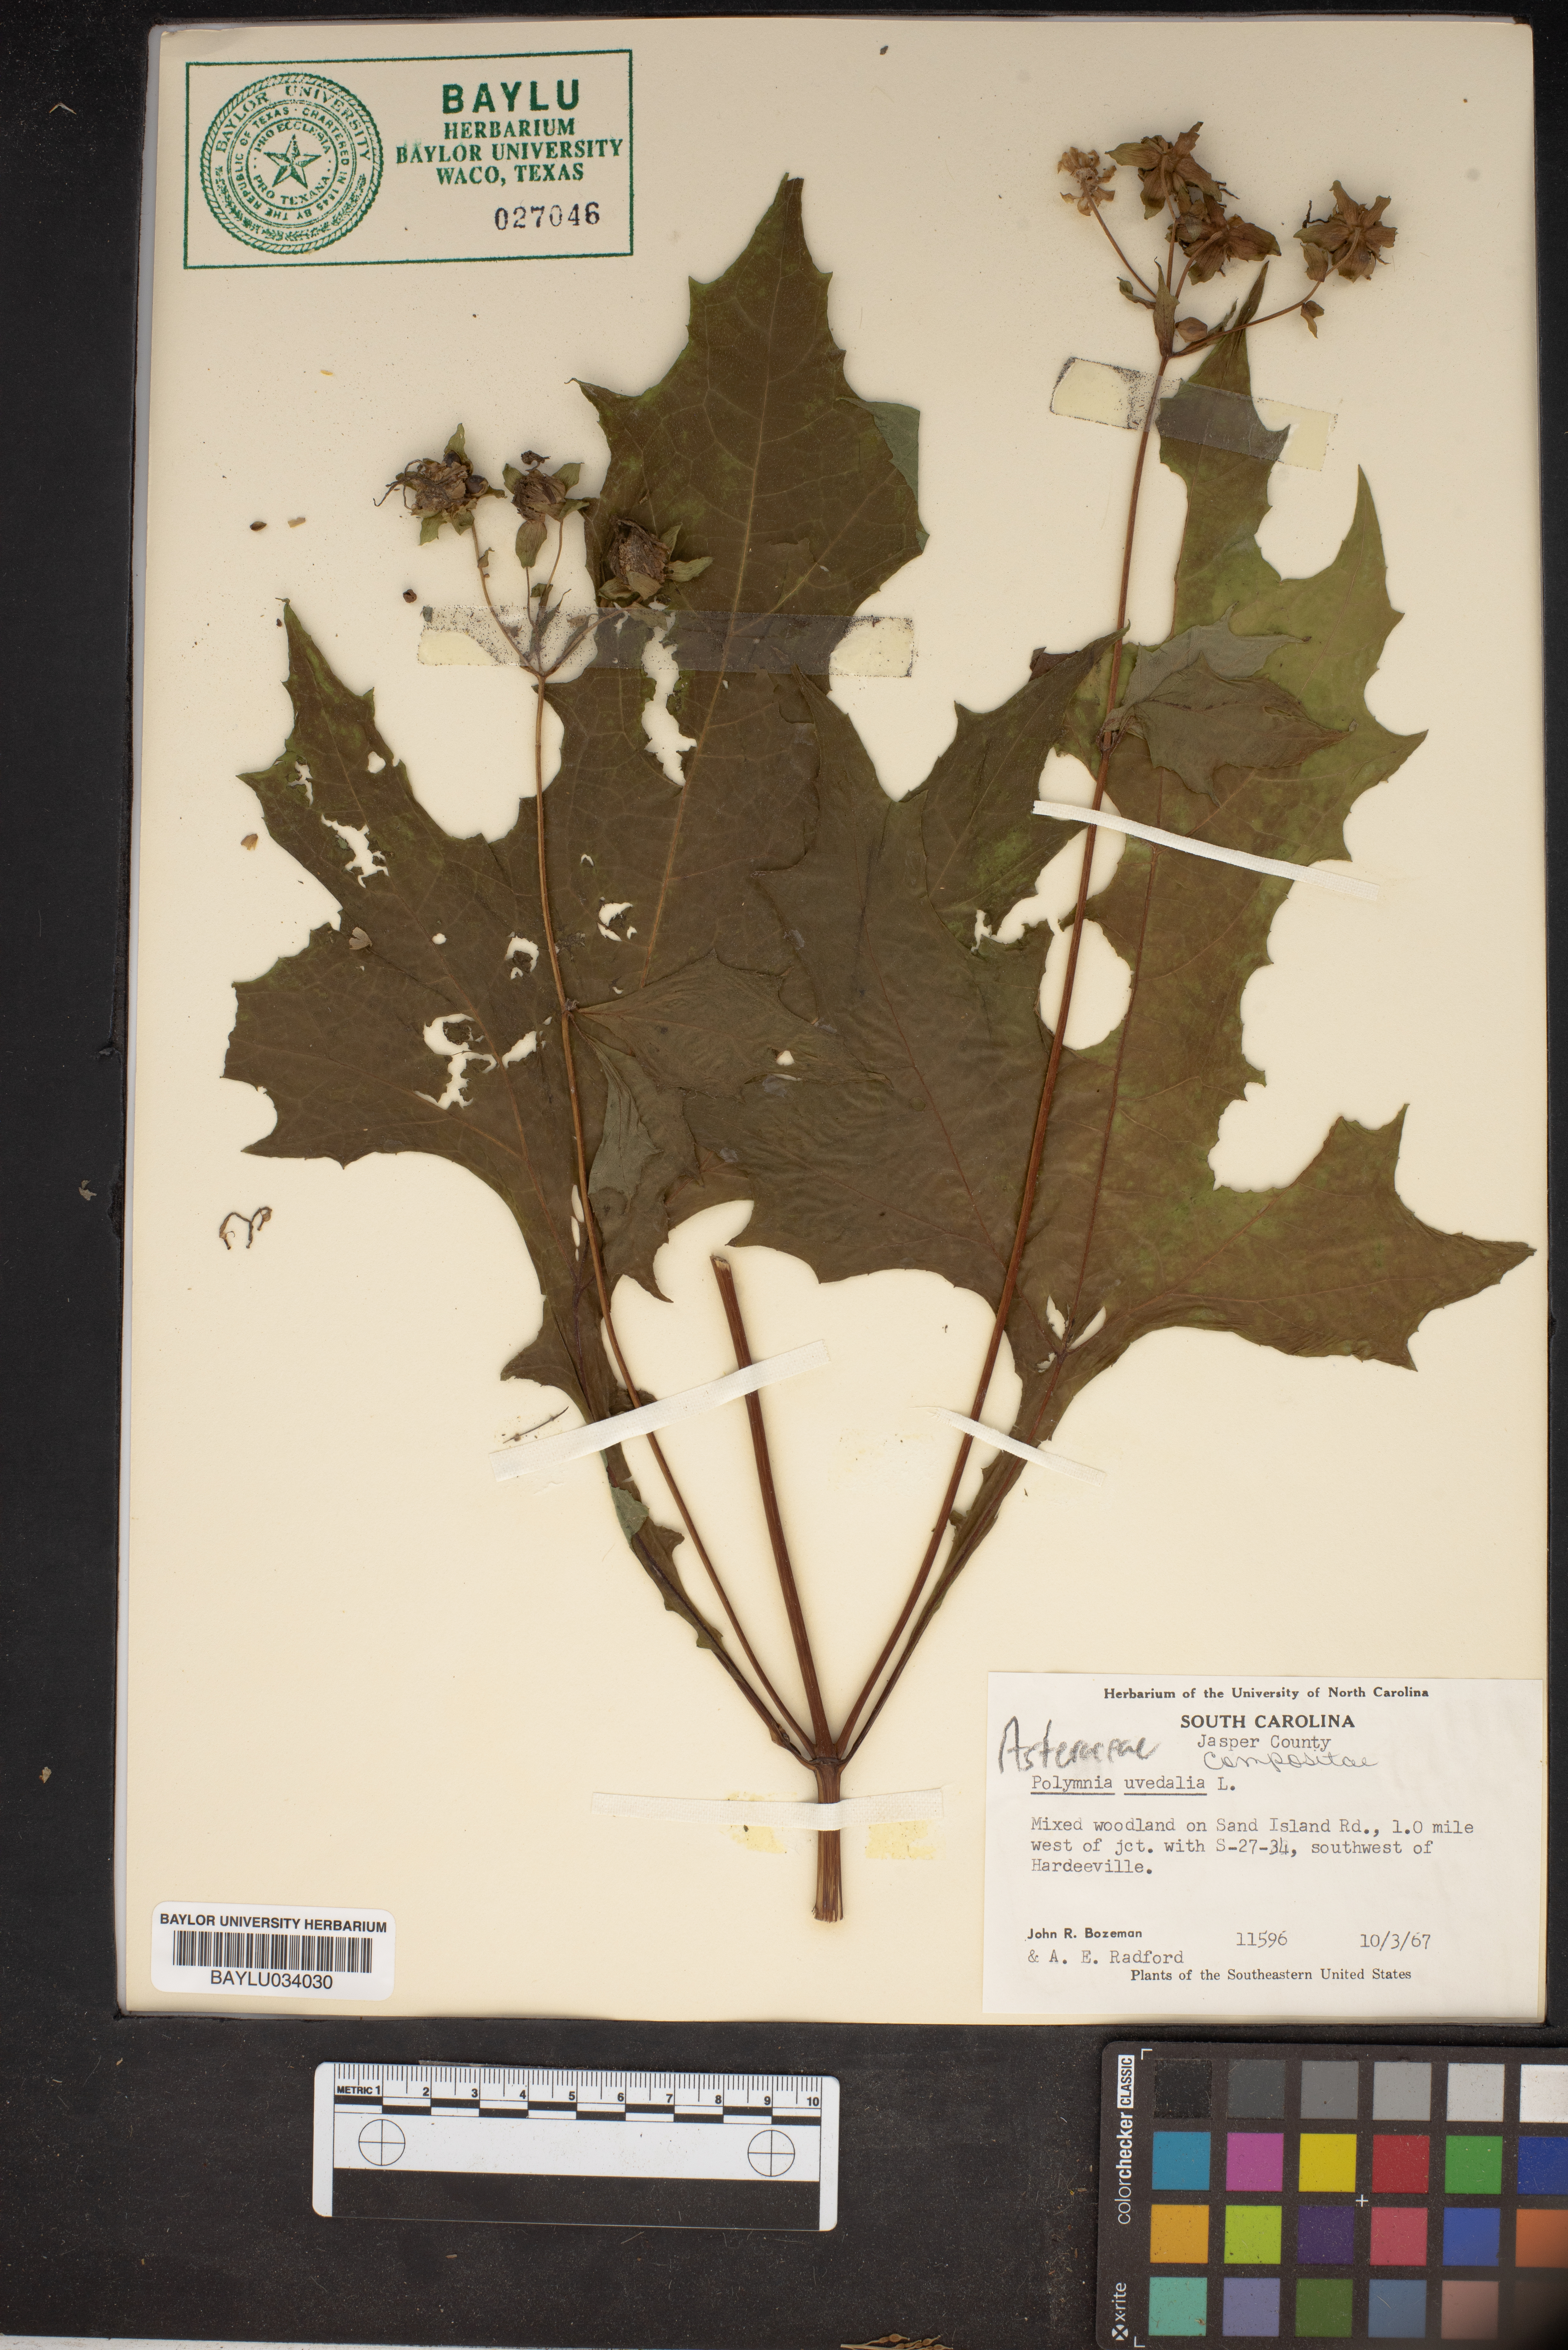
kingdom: Plantae
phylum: Tracheophyta
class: Magnoliopsida
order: Asterales
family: Asteraceae
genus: Smallanthus
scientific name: Smallanthus uvedalia
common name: Bear's-foot
